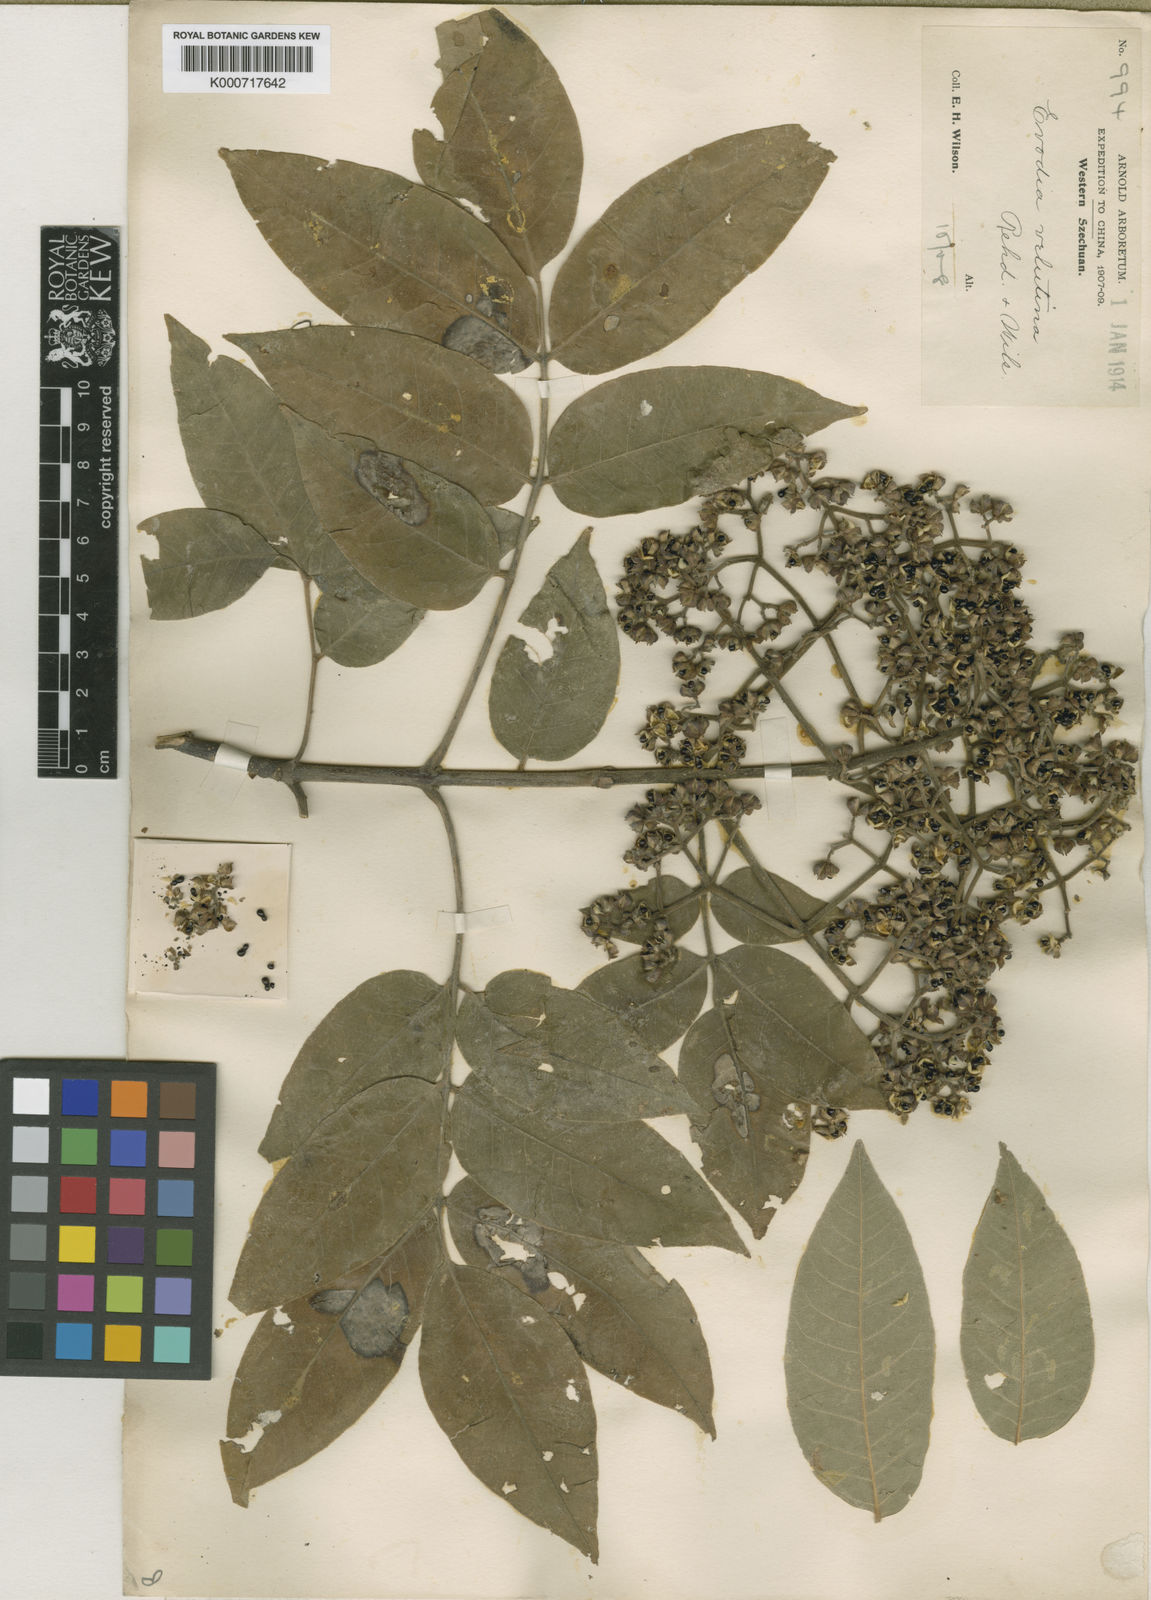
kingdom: Plantae
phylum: Tracheophyta
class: Magnoliopsida
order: Sapindales
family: Rutaceae
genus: Tetradium
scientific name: Tetradium daniellii
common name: Bee-bee tree
